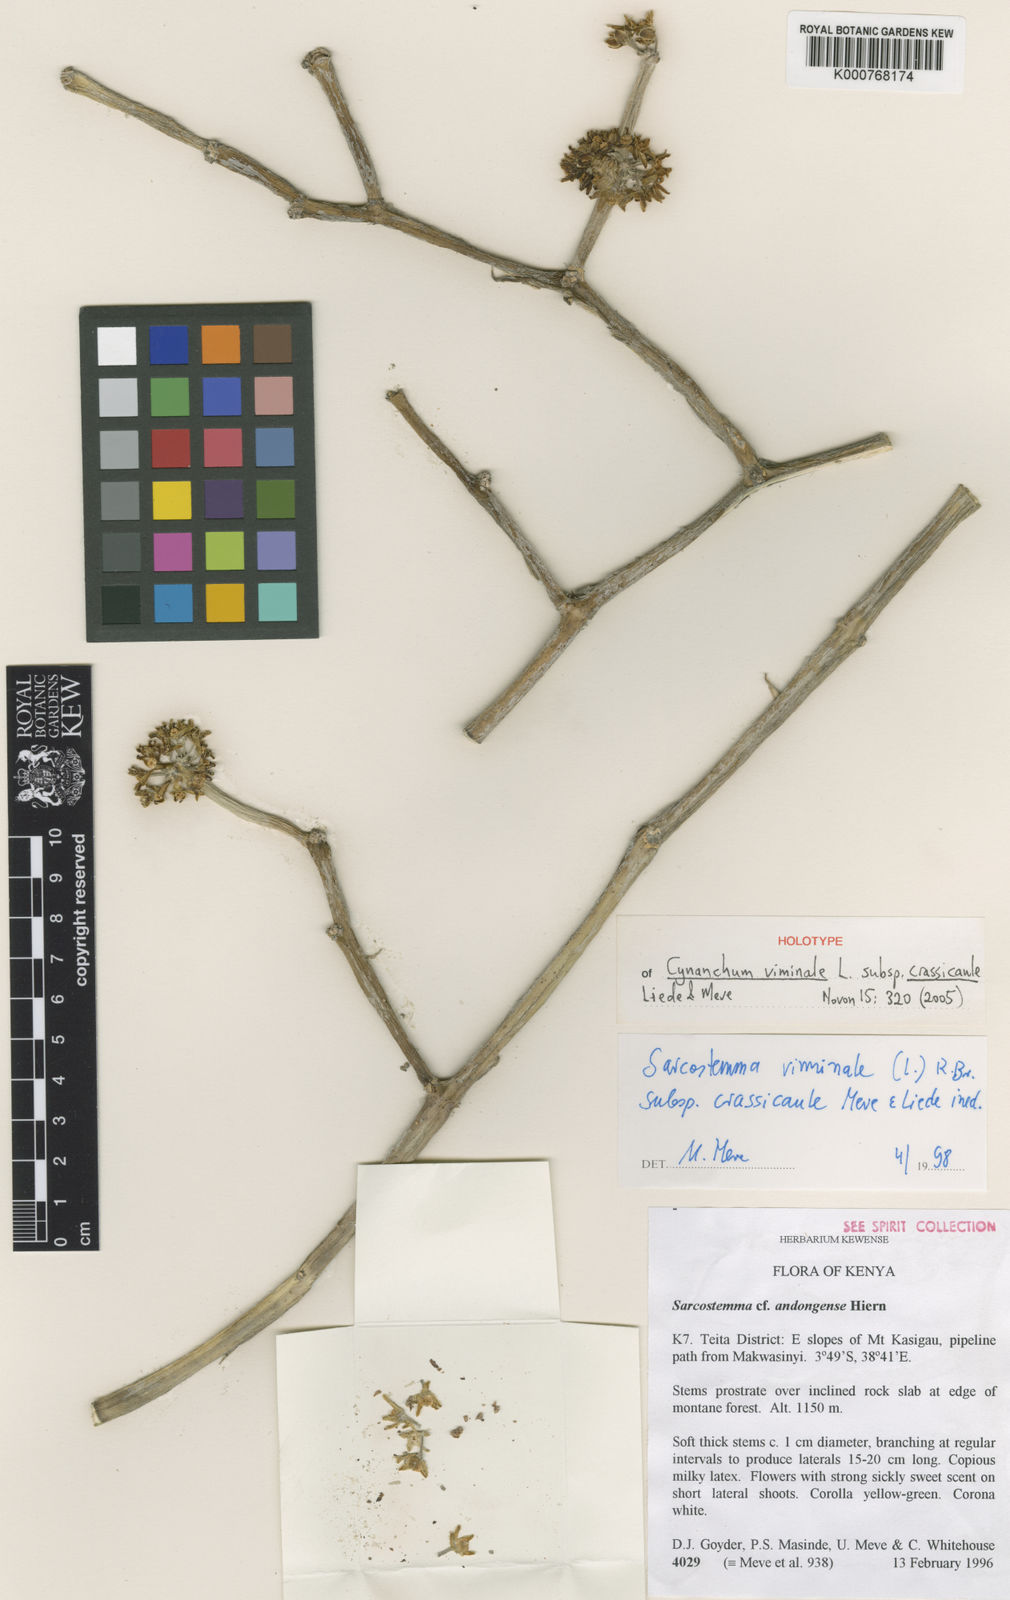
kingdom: Plantae
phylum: Tracheophyta
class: Magnoliopsida
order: Gentianales
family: Apocynaceae
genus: Cynanchum
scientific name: Cynanchum viminale
